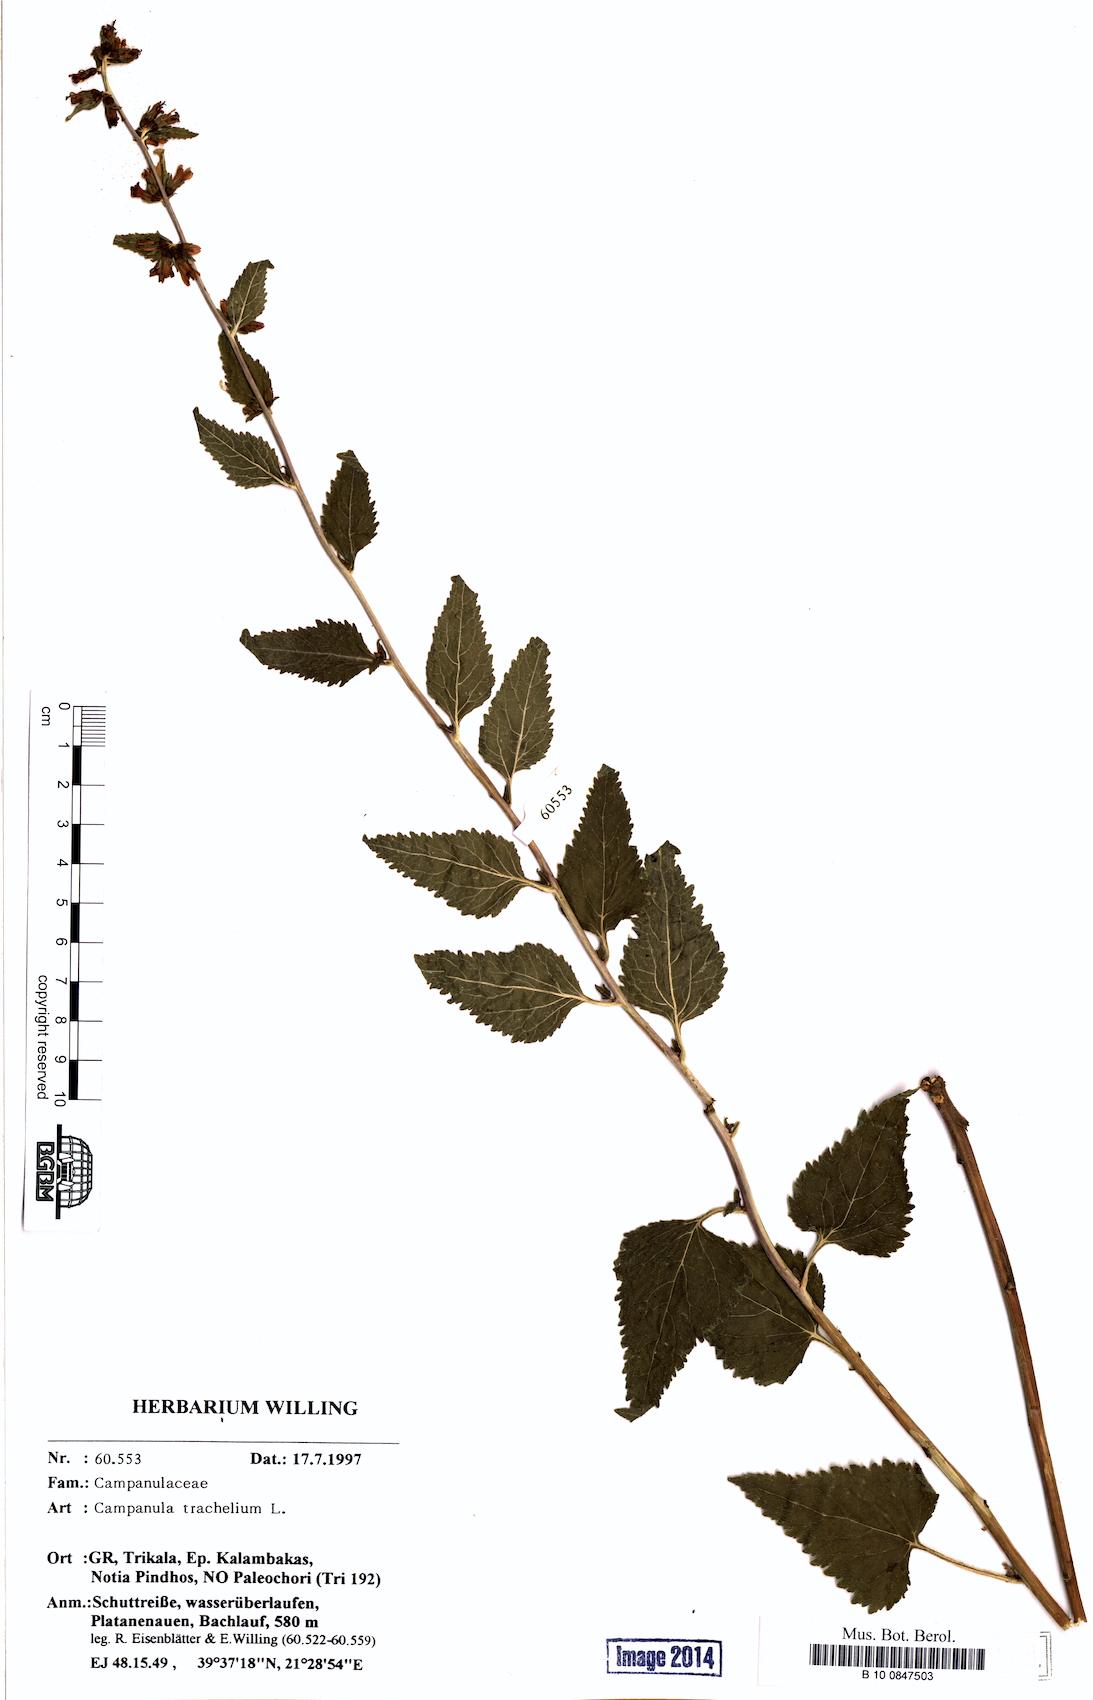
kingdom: Plantae
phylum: Tracheophyta
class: Magnoliopsida
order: Asterales
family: Campanulaceae
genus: Campanula
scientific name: Campanula trachelium
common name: Nettle-leaved bellflower
